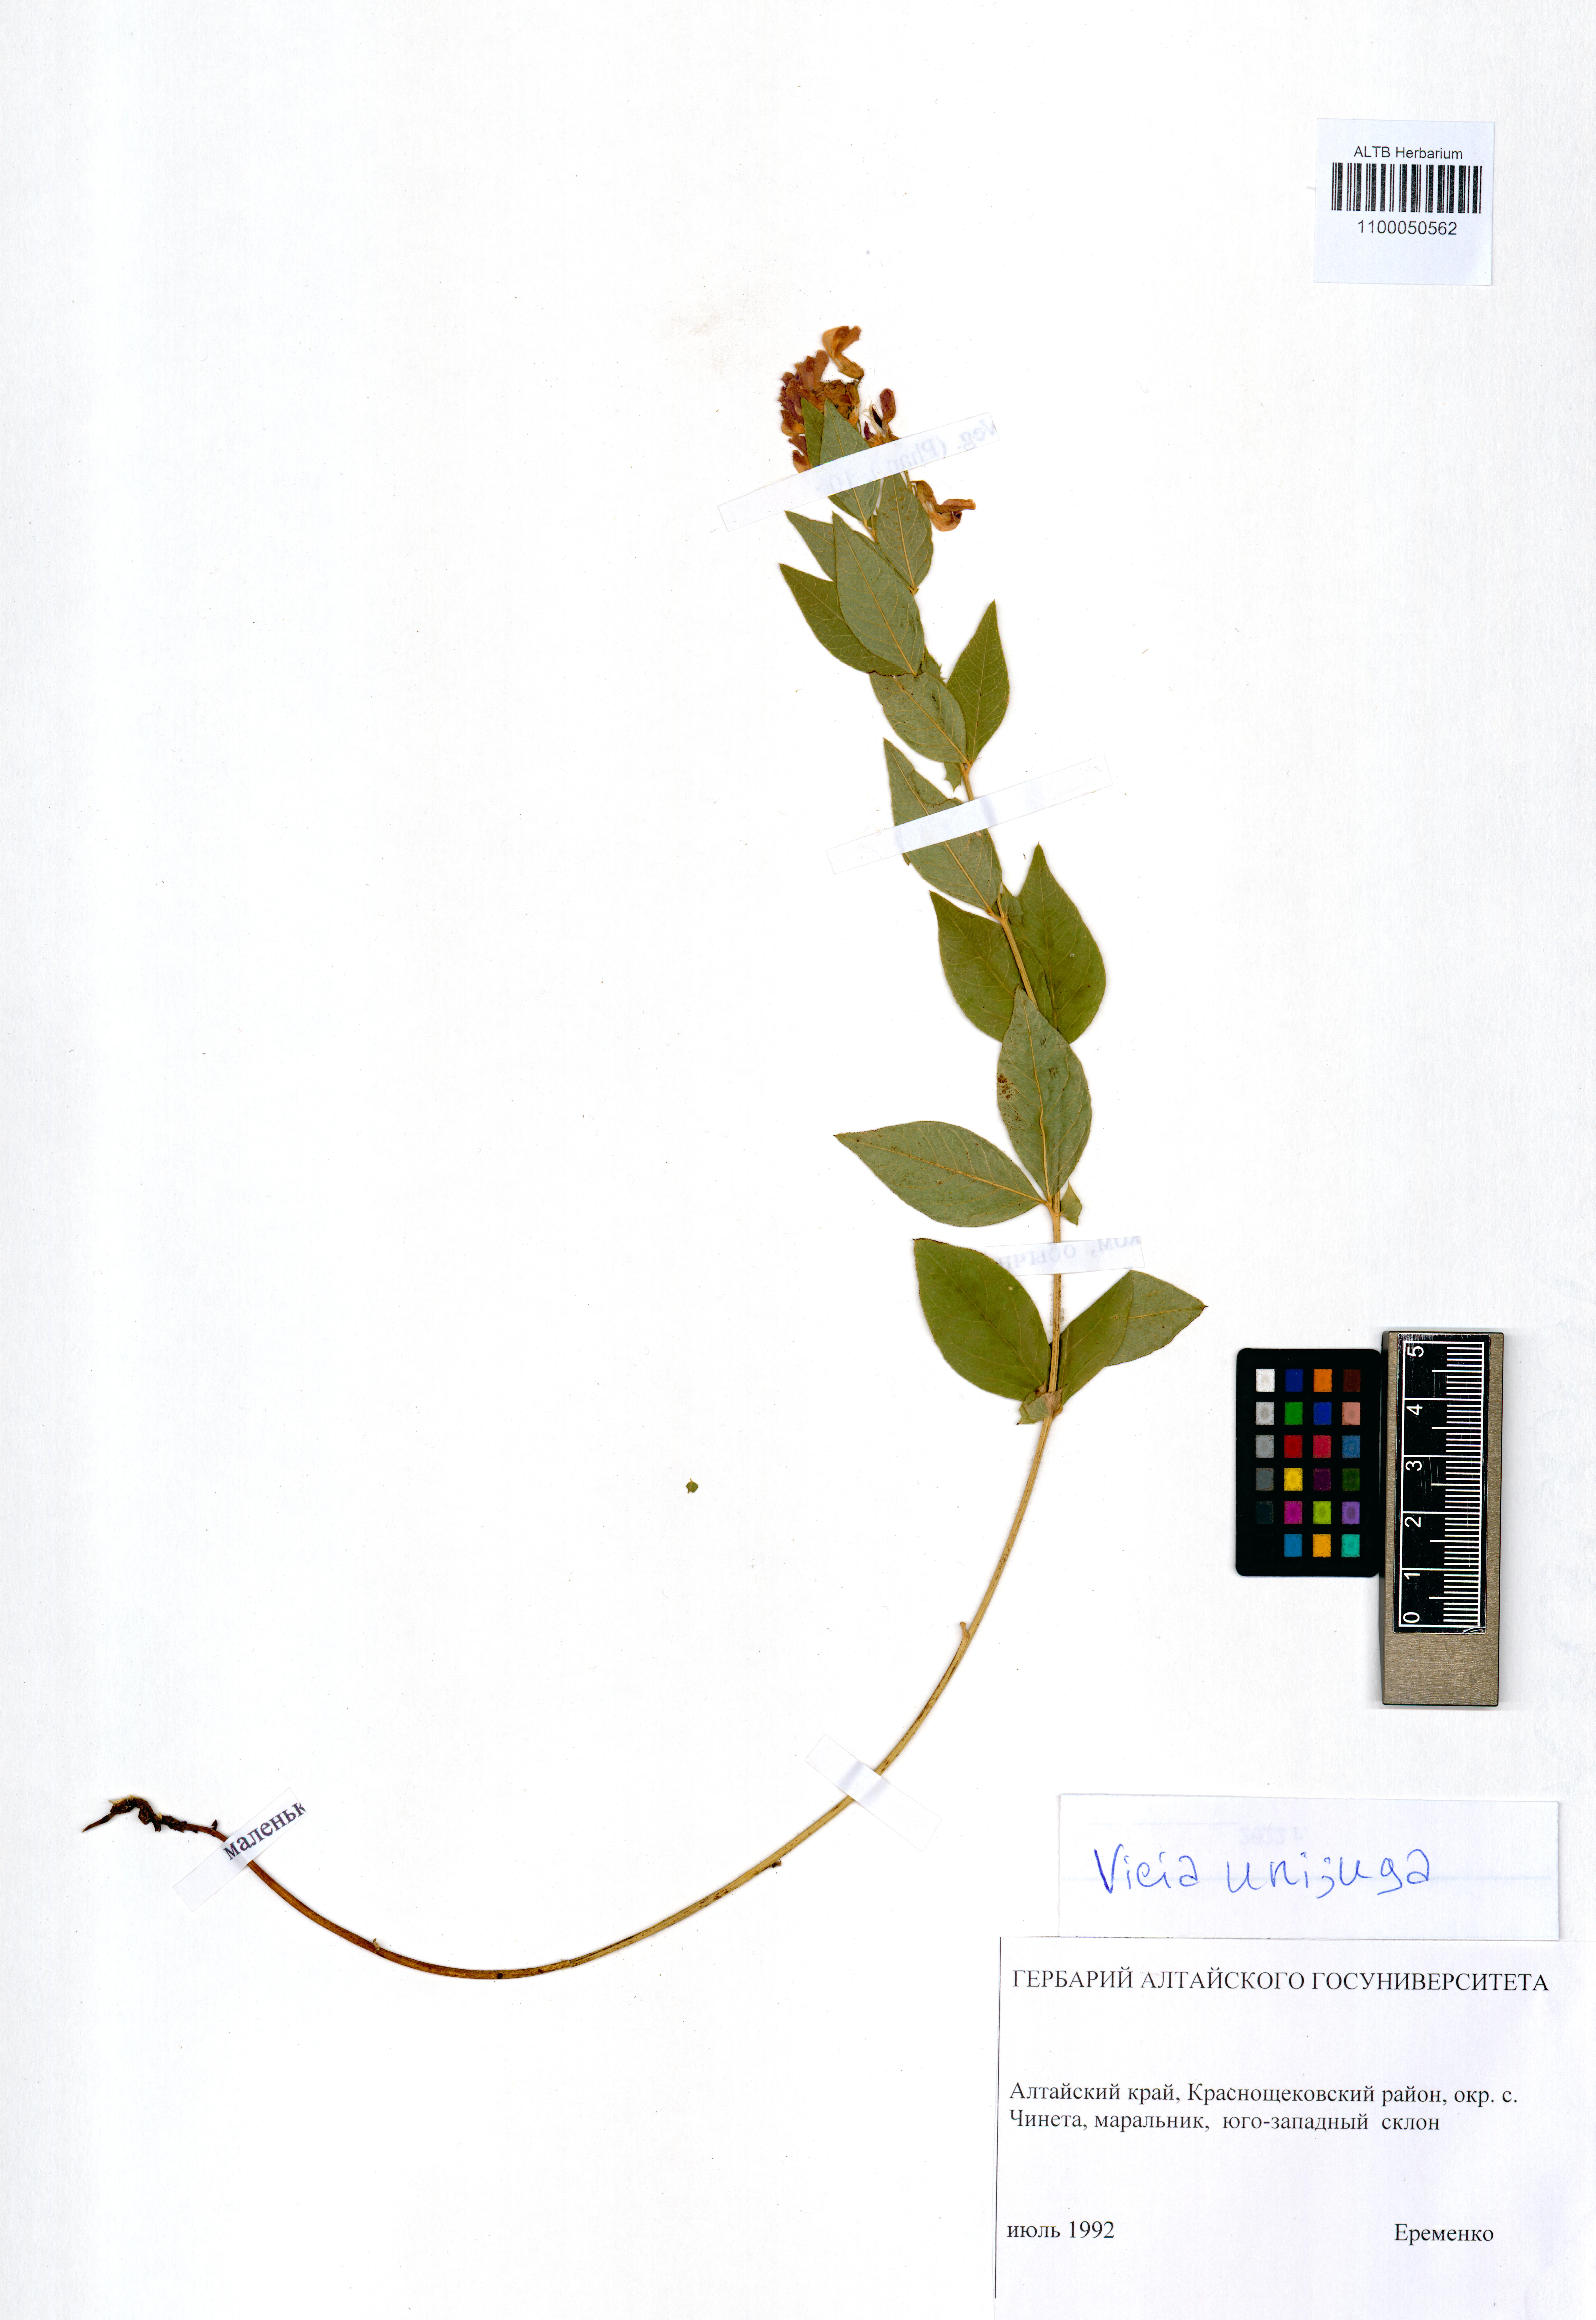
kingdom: Plantae
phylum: Tracheophyta
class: Magnoliopsida
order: Fabales
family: Fabaceae
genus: Vicia
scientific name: Vicia unijuga
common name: Two-leaf vetch
